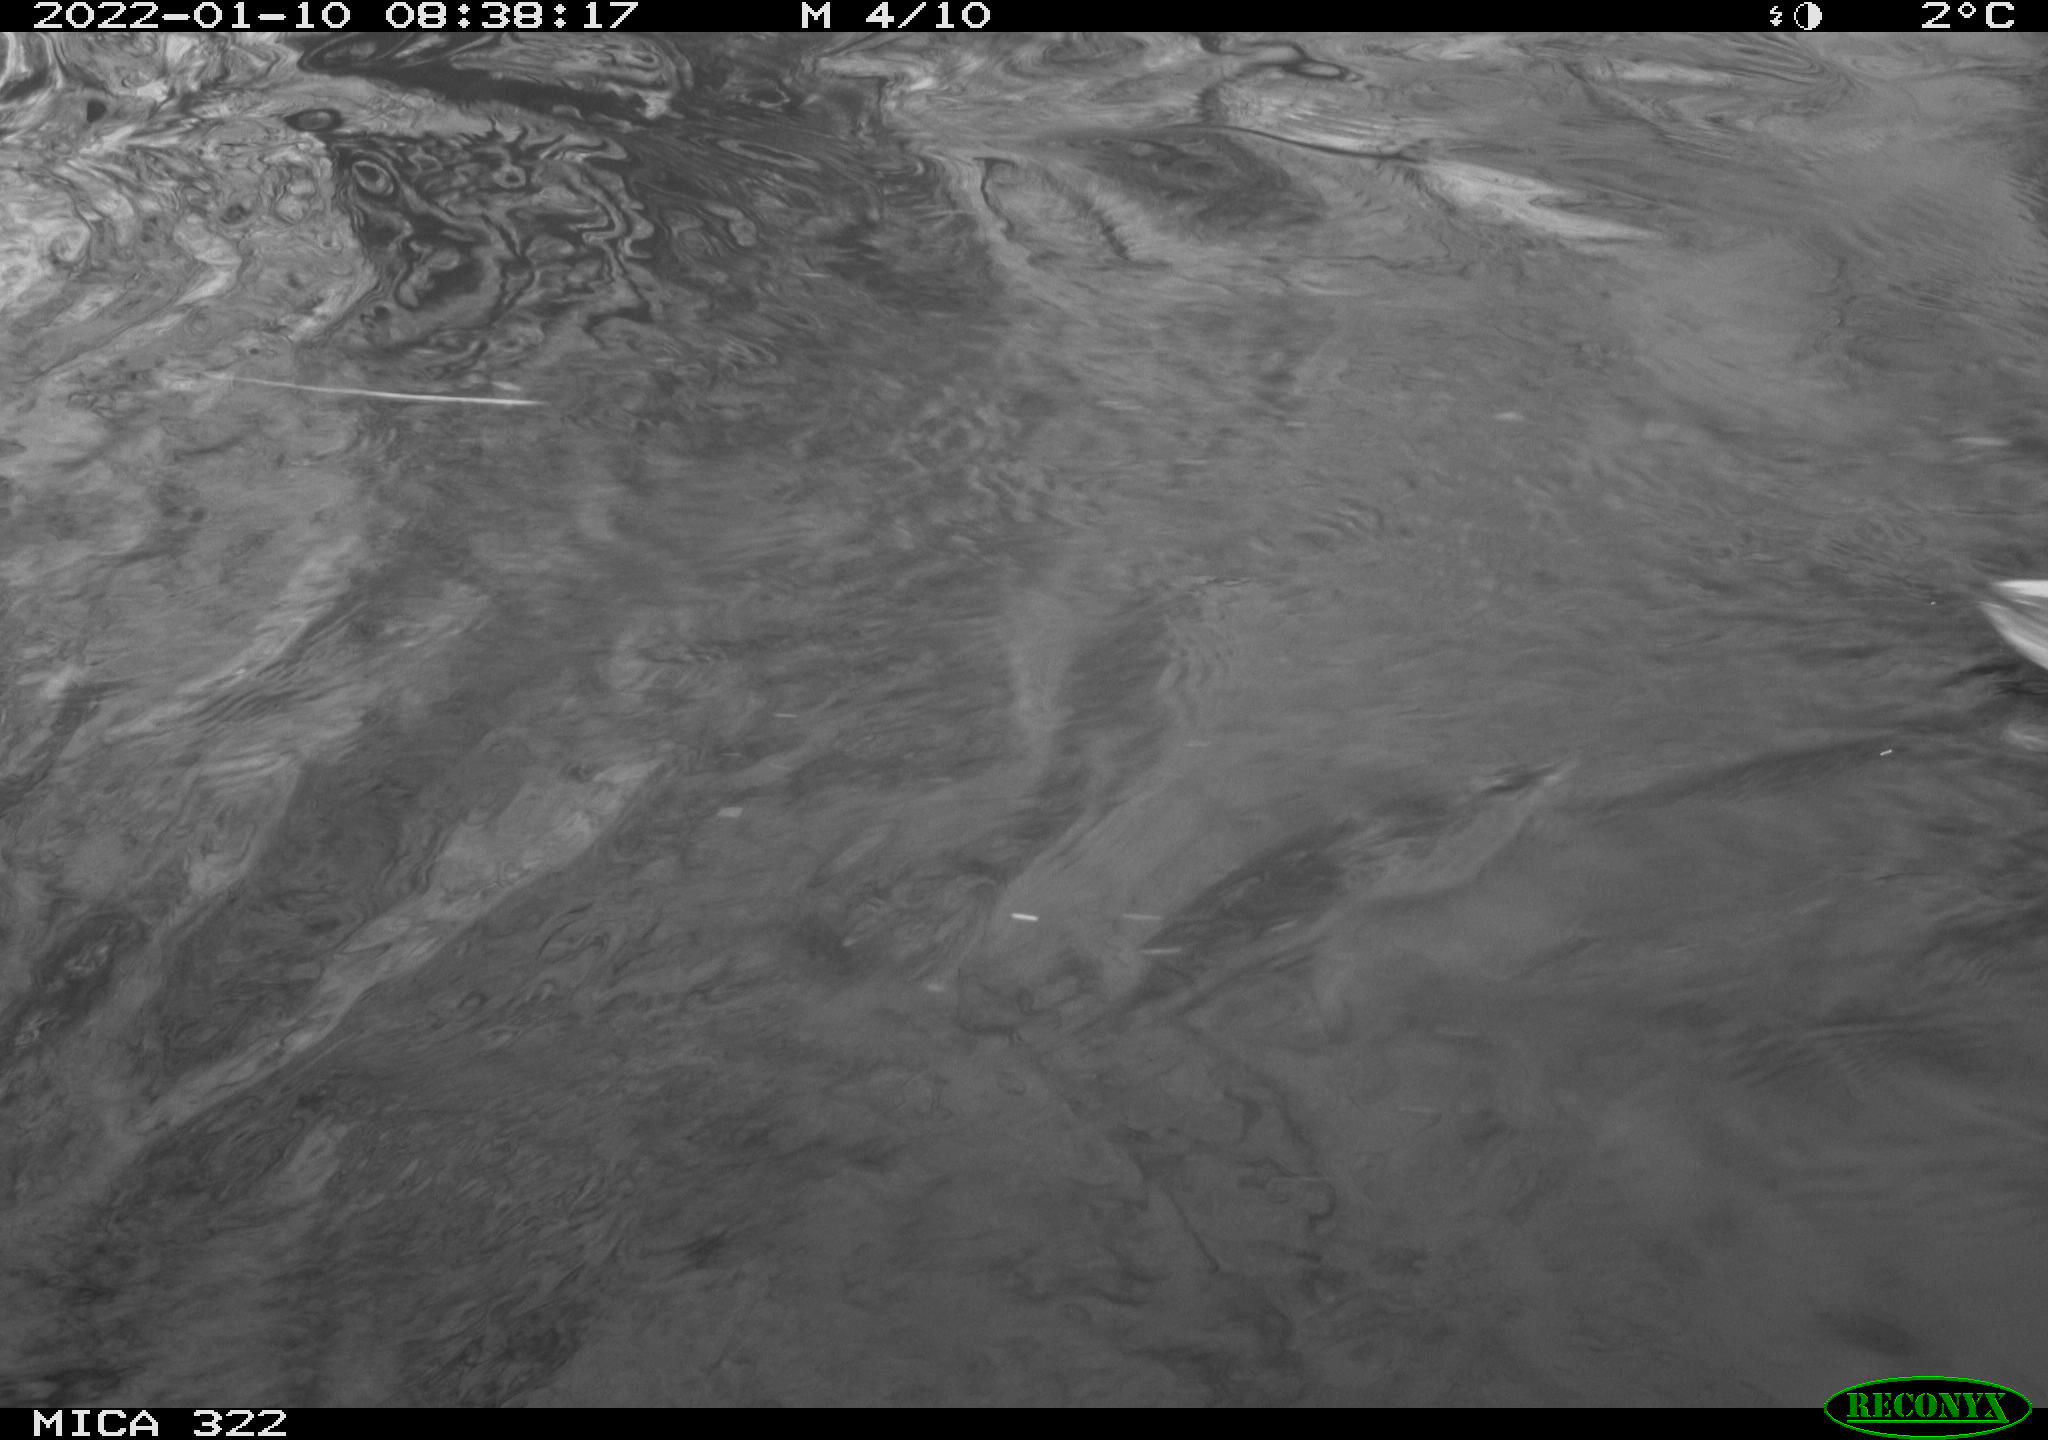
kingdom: Animalia
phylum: Chordata
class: Aves
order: Anseriformes
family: Anatidae
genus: Anas
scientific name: Anas
